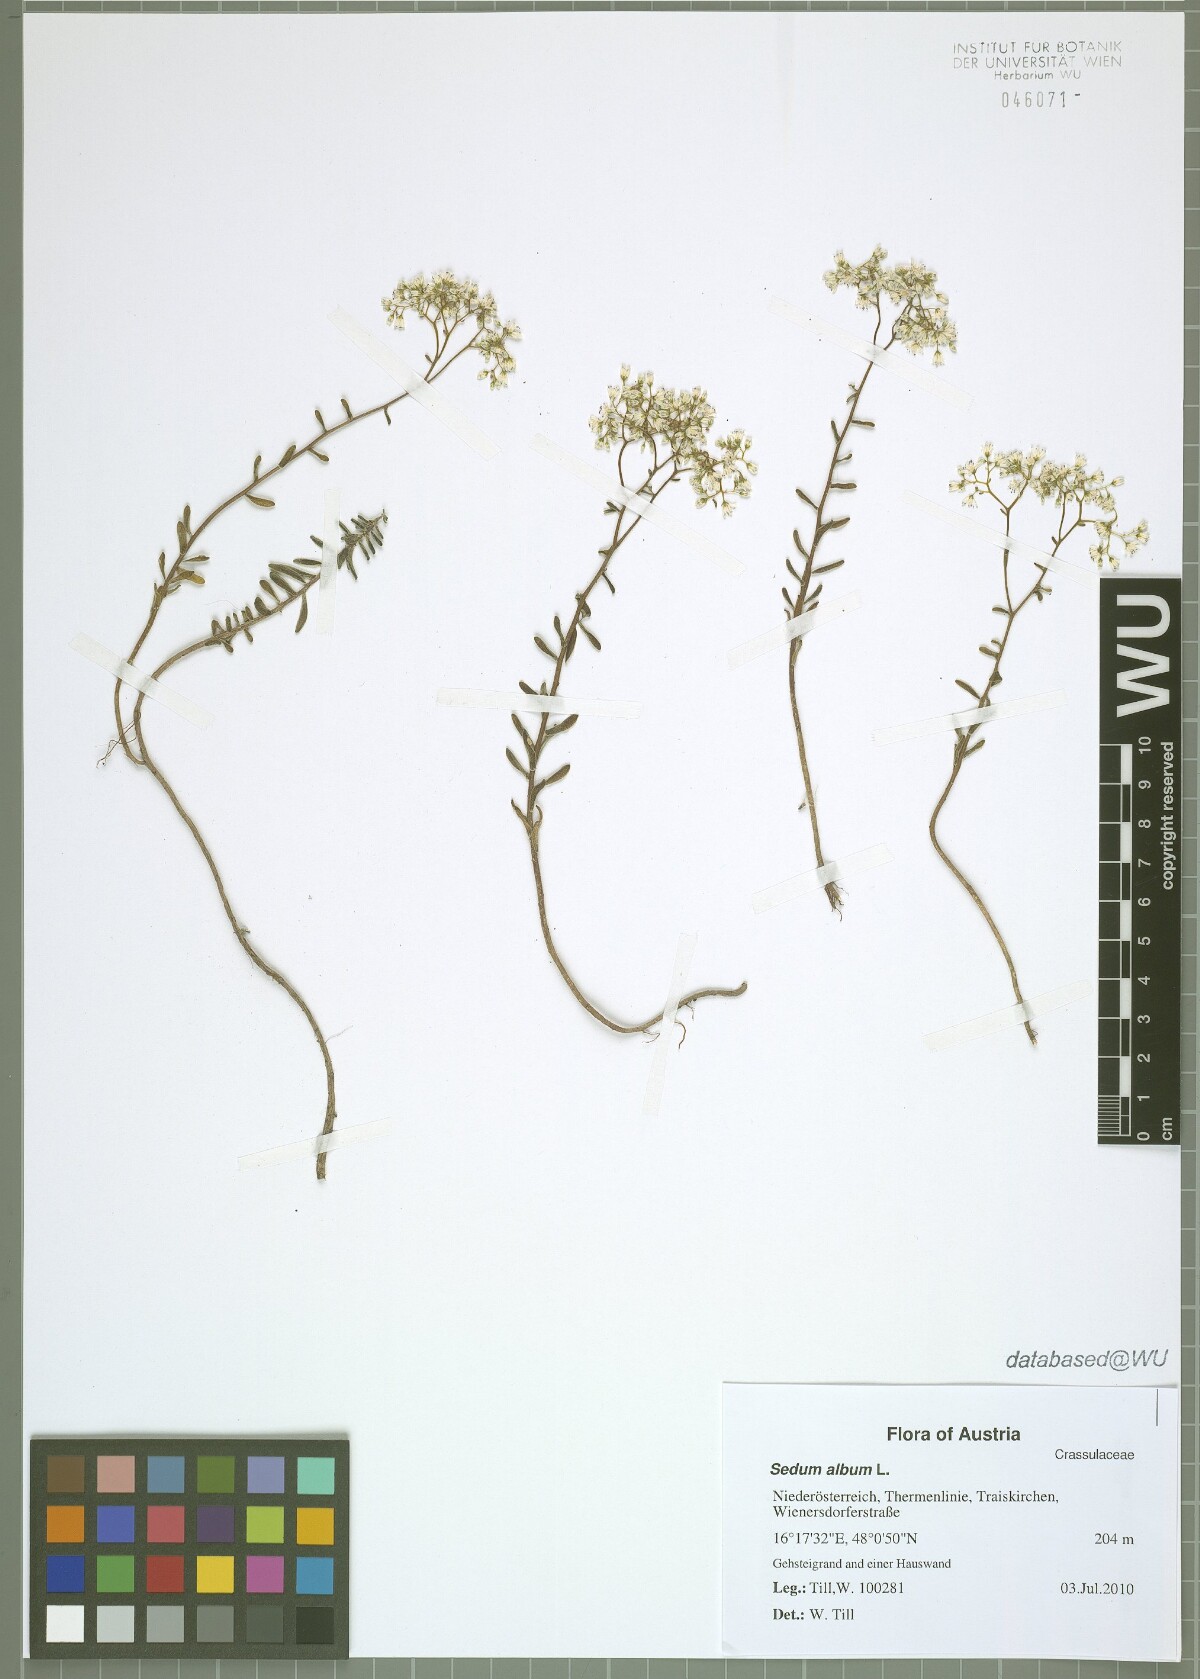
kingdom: Plantae
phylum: Tracheophyta
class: Magnoliopsida
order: Saxifragales
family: Crassulaceae
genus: Sedum
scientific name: Sedum album
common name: White stonecrop
